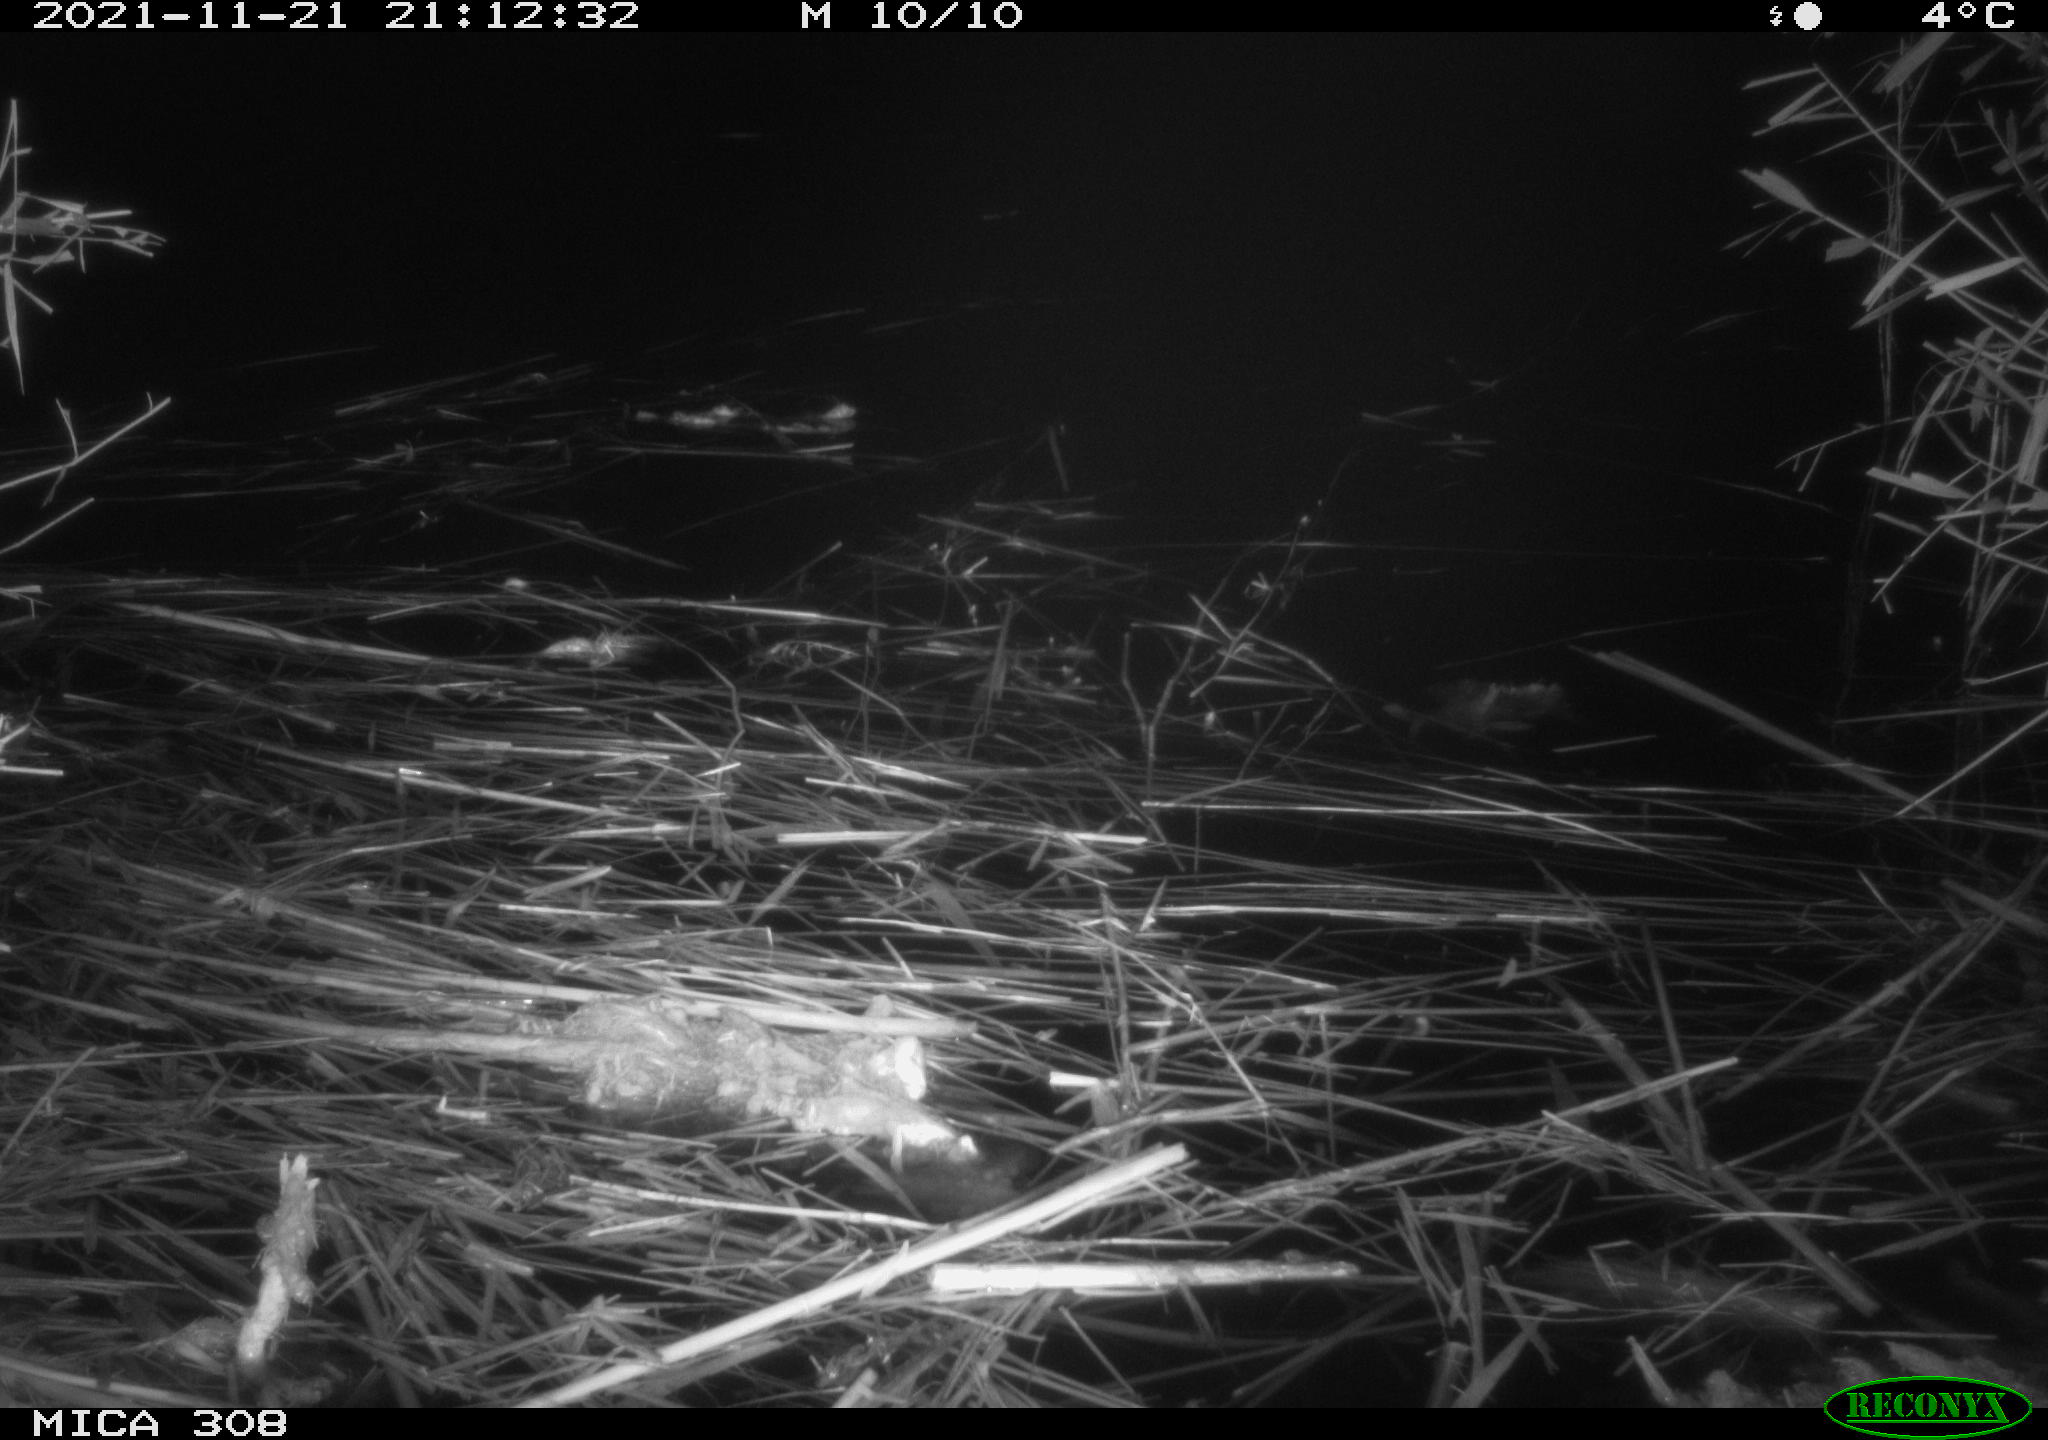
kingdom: Animalia
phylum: Chordata
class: Mammalia
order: Rodentia
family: Muridae
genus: Rattus
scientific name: Rattus norvegicus
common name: Brown rat
